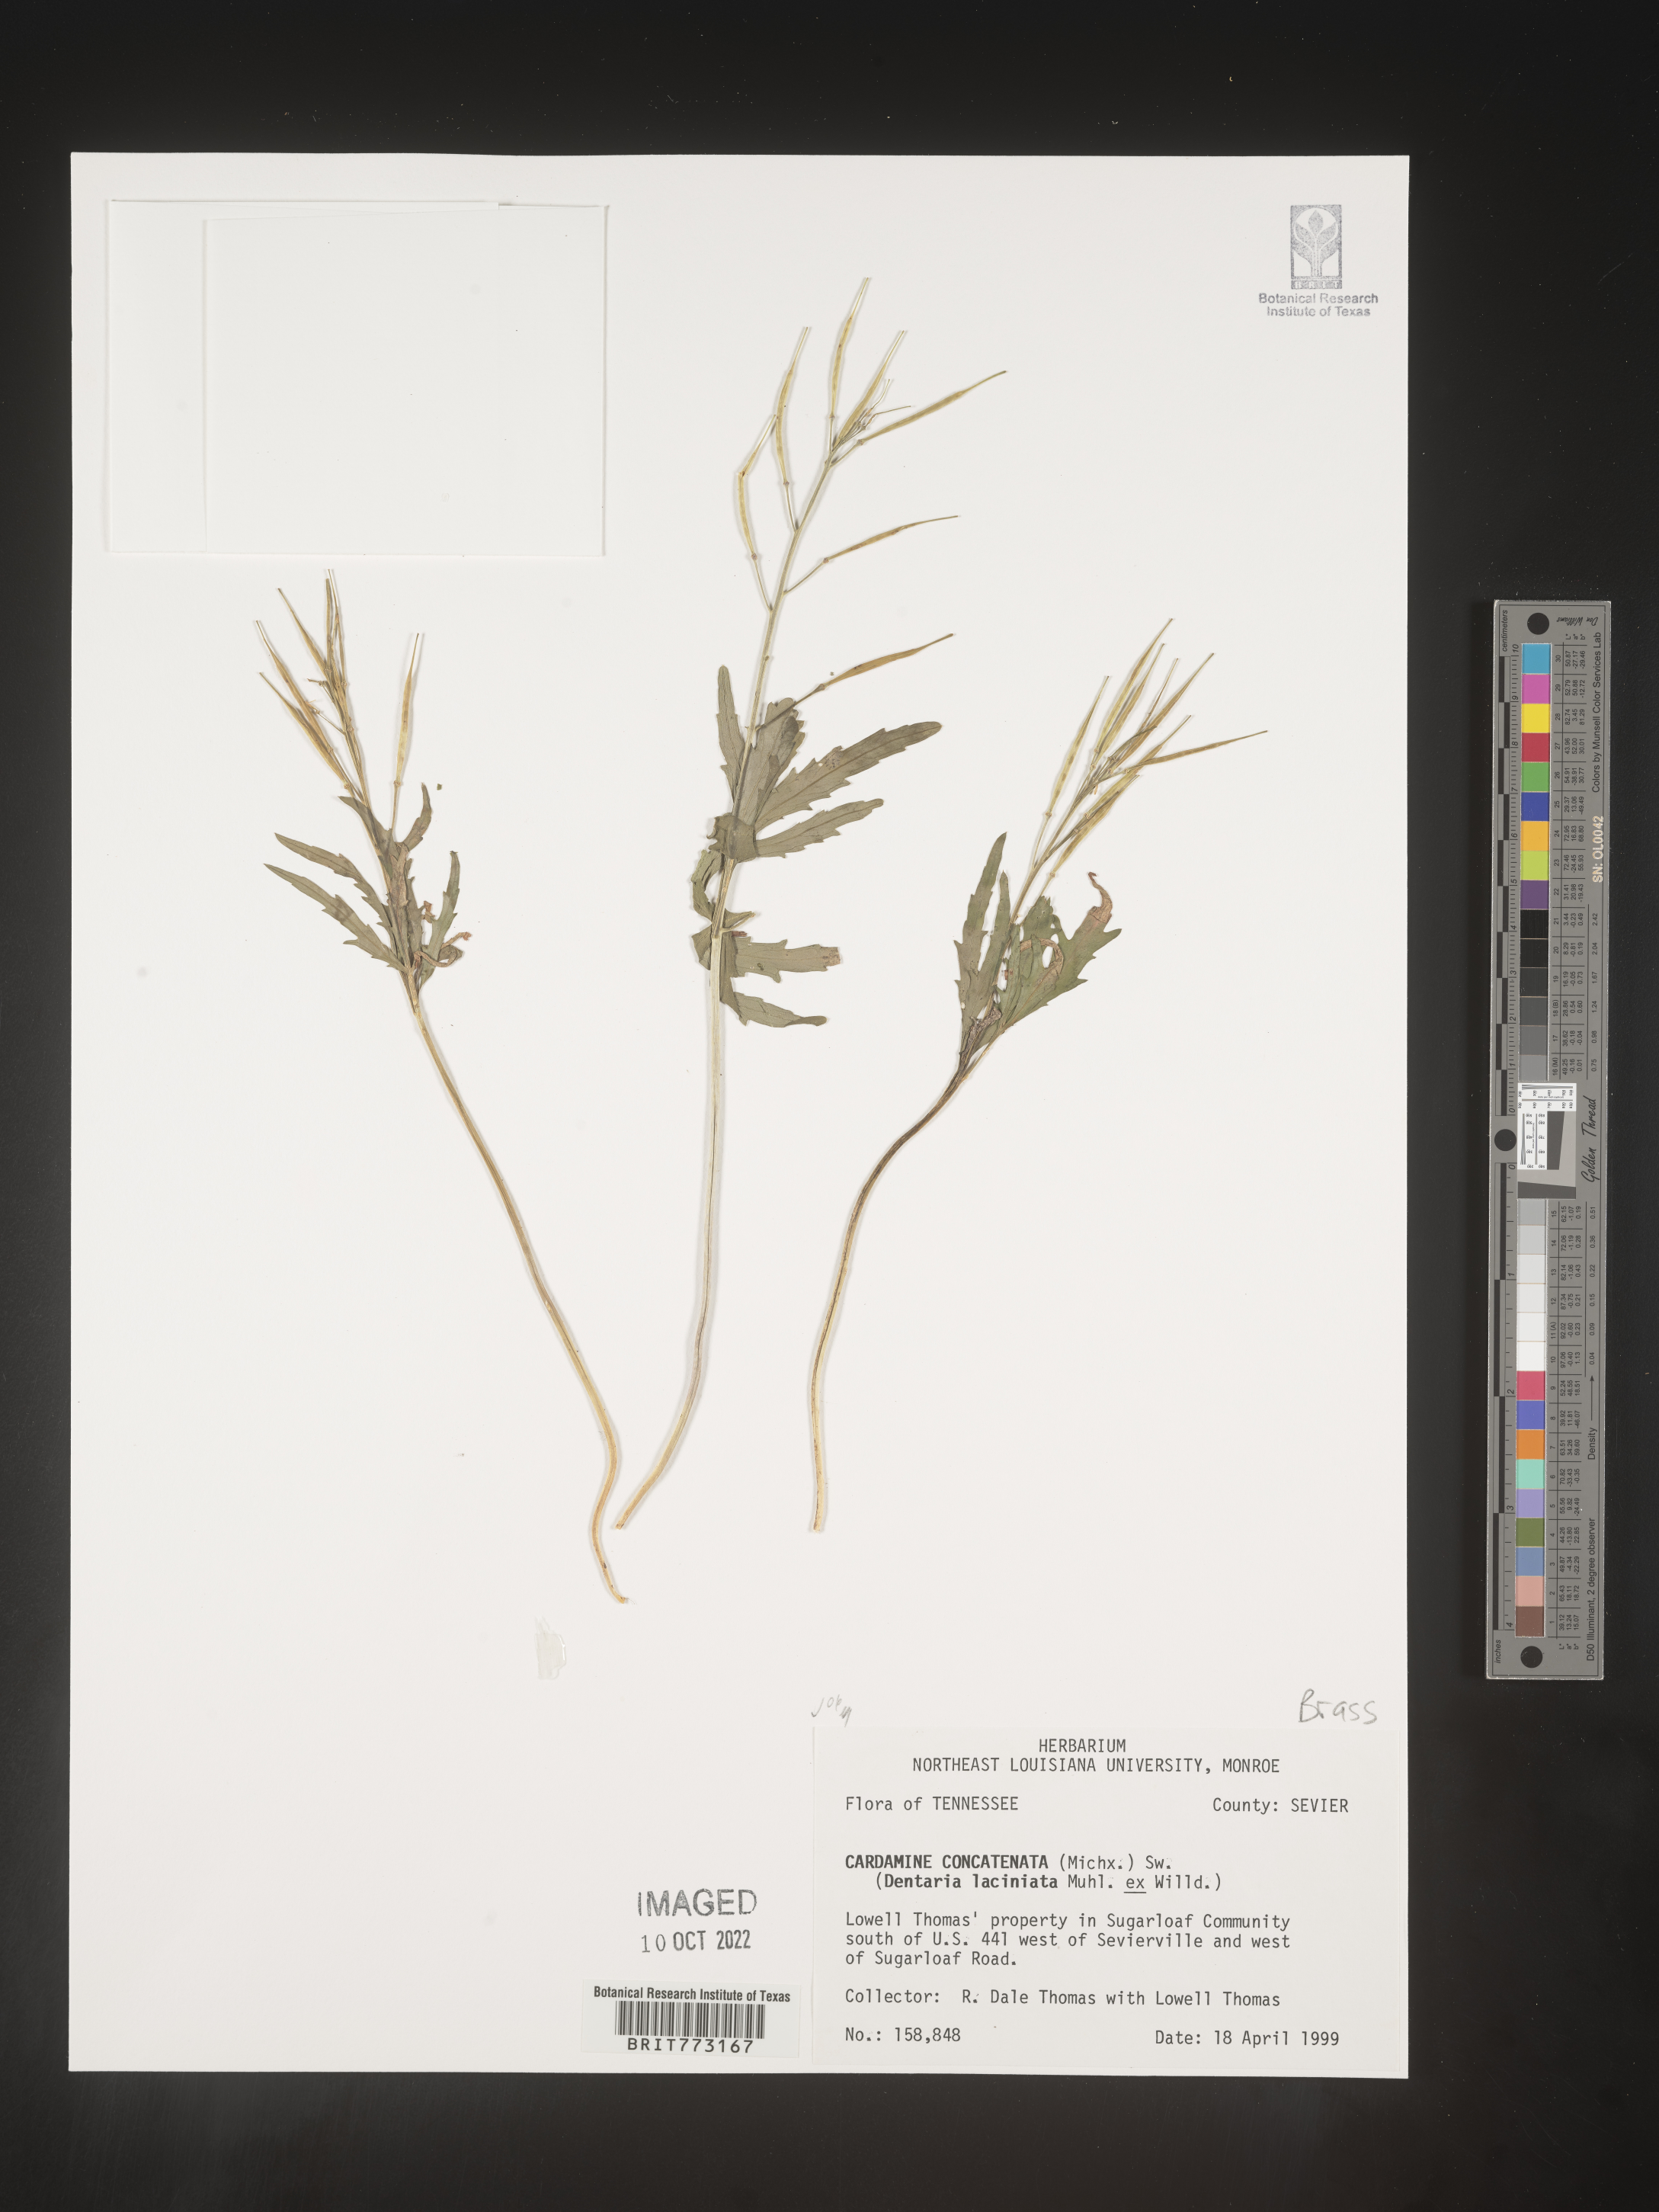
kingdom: Plantae
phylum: Tracheophyta
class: Magnoliopsida
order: Brassicales
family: Brassicaceae
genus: Cardamine
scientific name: Cardamine
